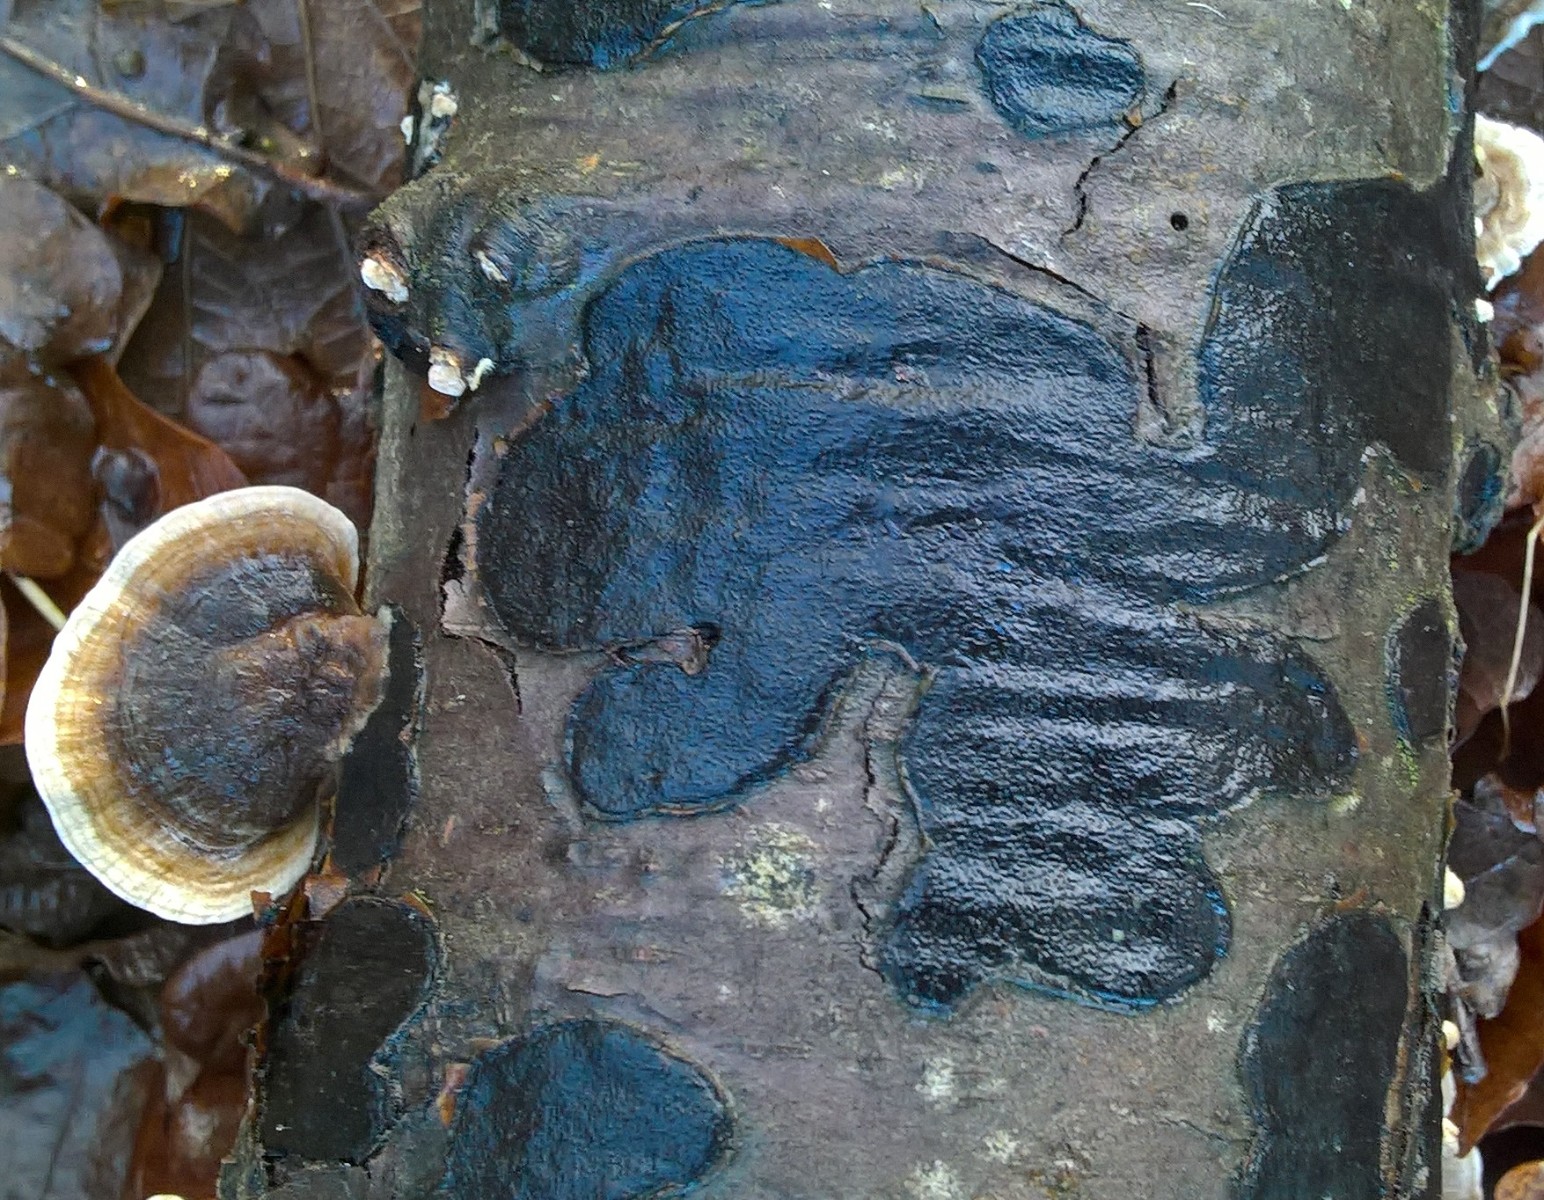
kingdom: Fungi
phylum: Ascomycota
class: Sordariomycetes
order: Xylariales
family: Graphostromataceae
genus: Biscogniauxia
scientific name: Biscogniauxia nummularia
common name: bøge-kulskive
